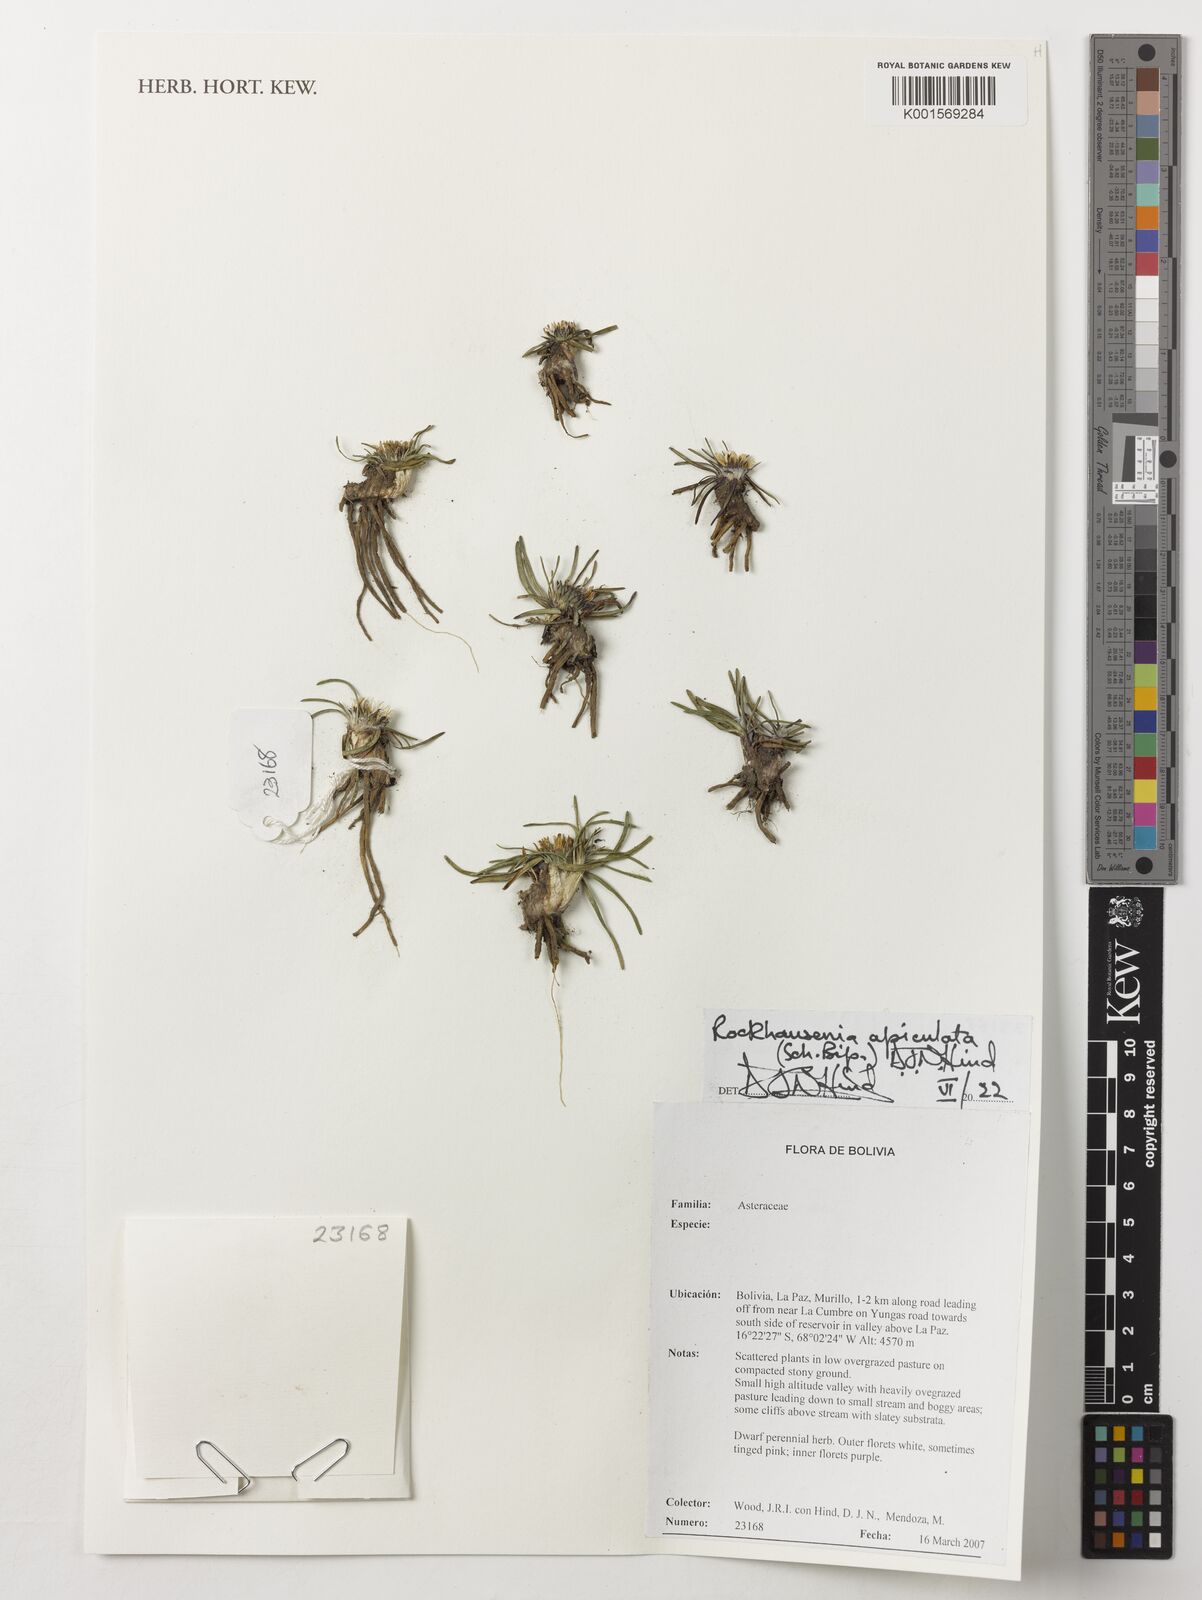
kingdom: Plantae
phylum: Tracheophyta
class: Magnoliopsida
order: Asterales
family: Asteraceae
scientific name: Asteraceae
